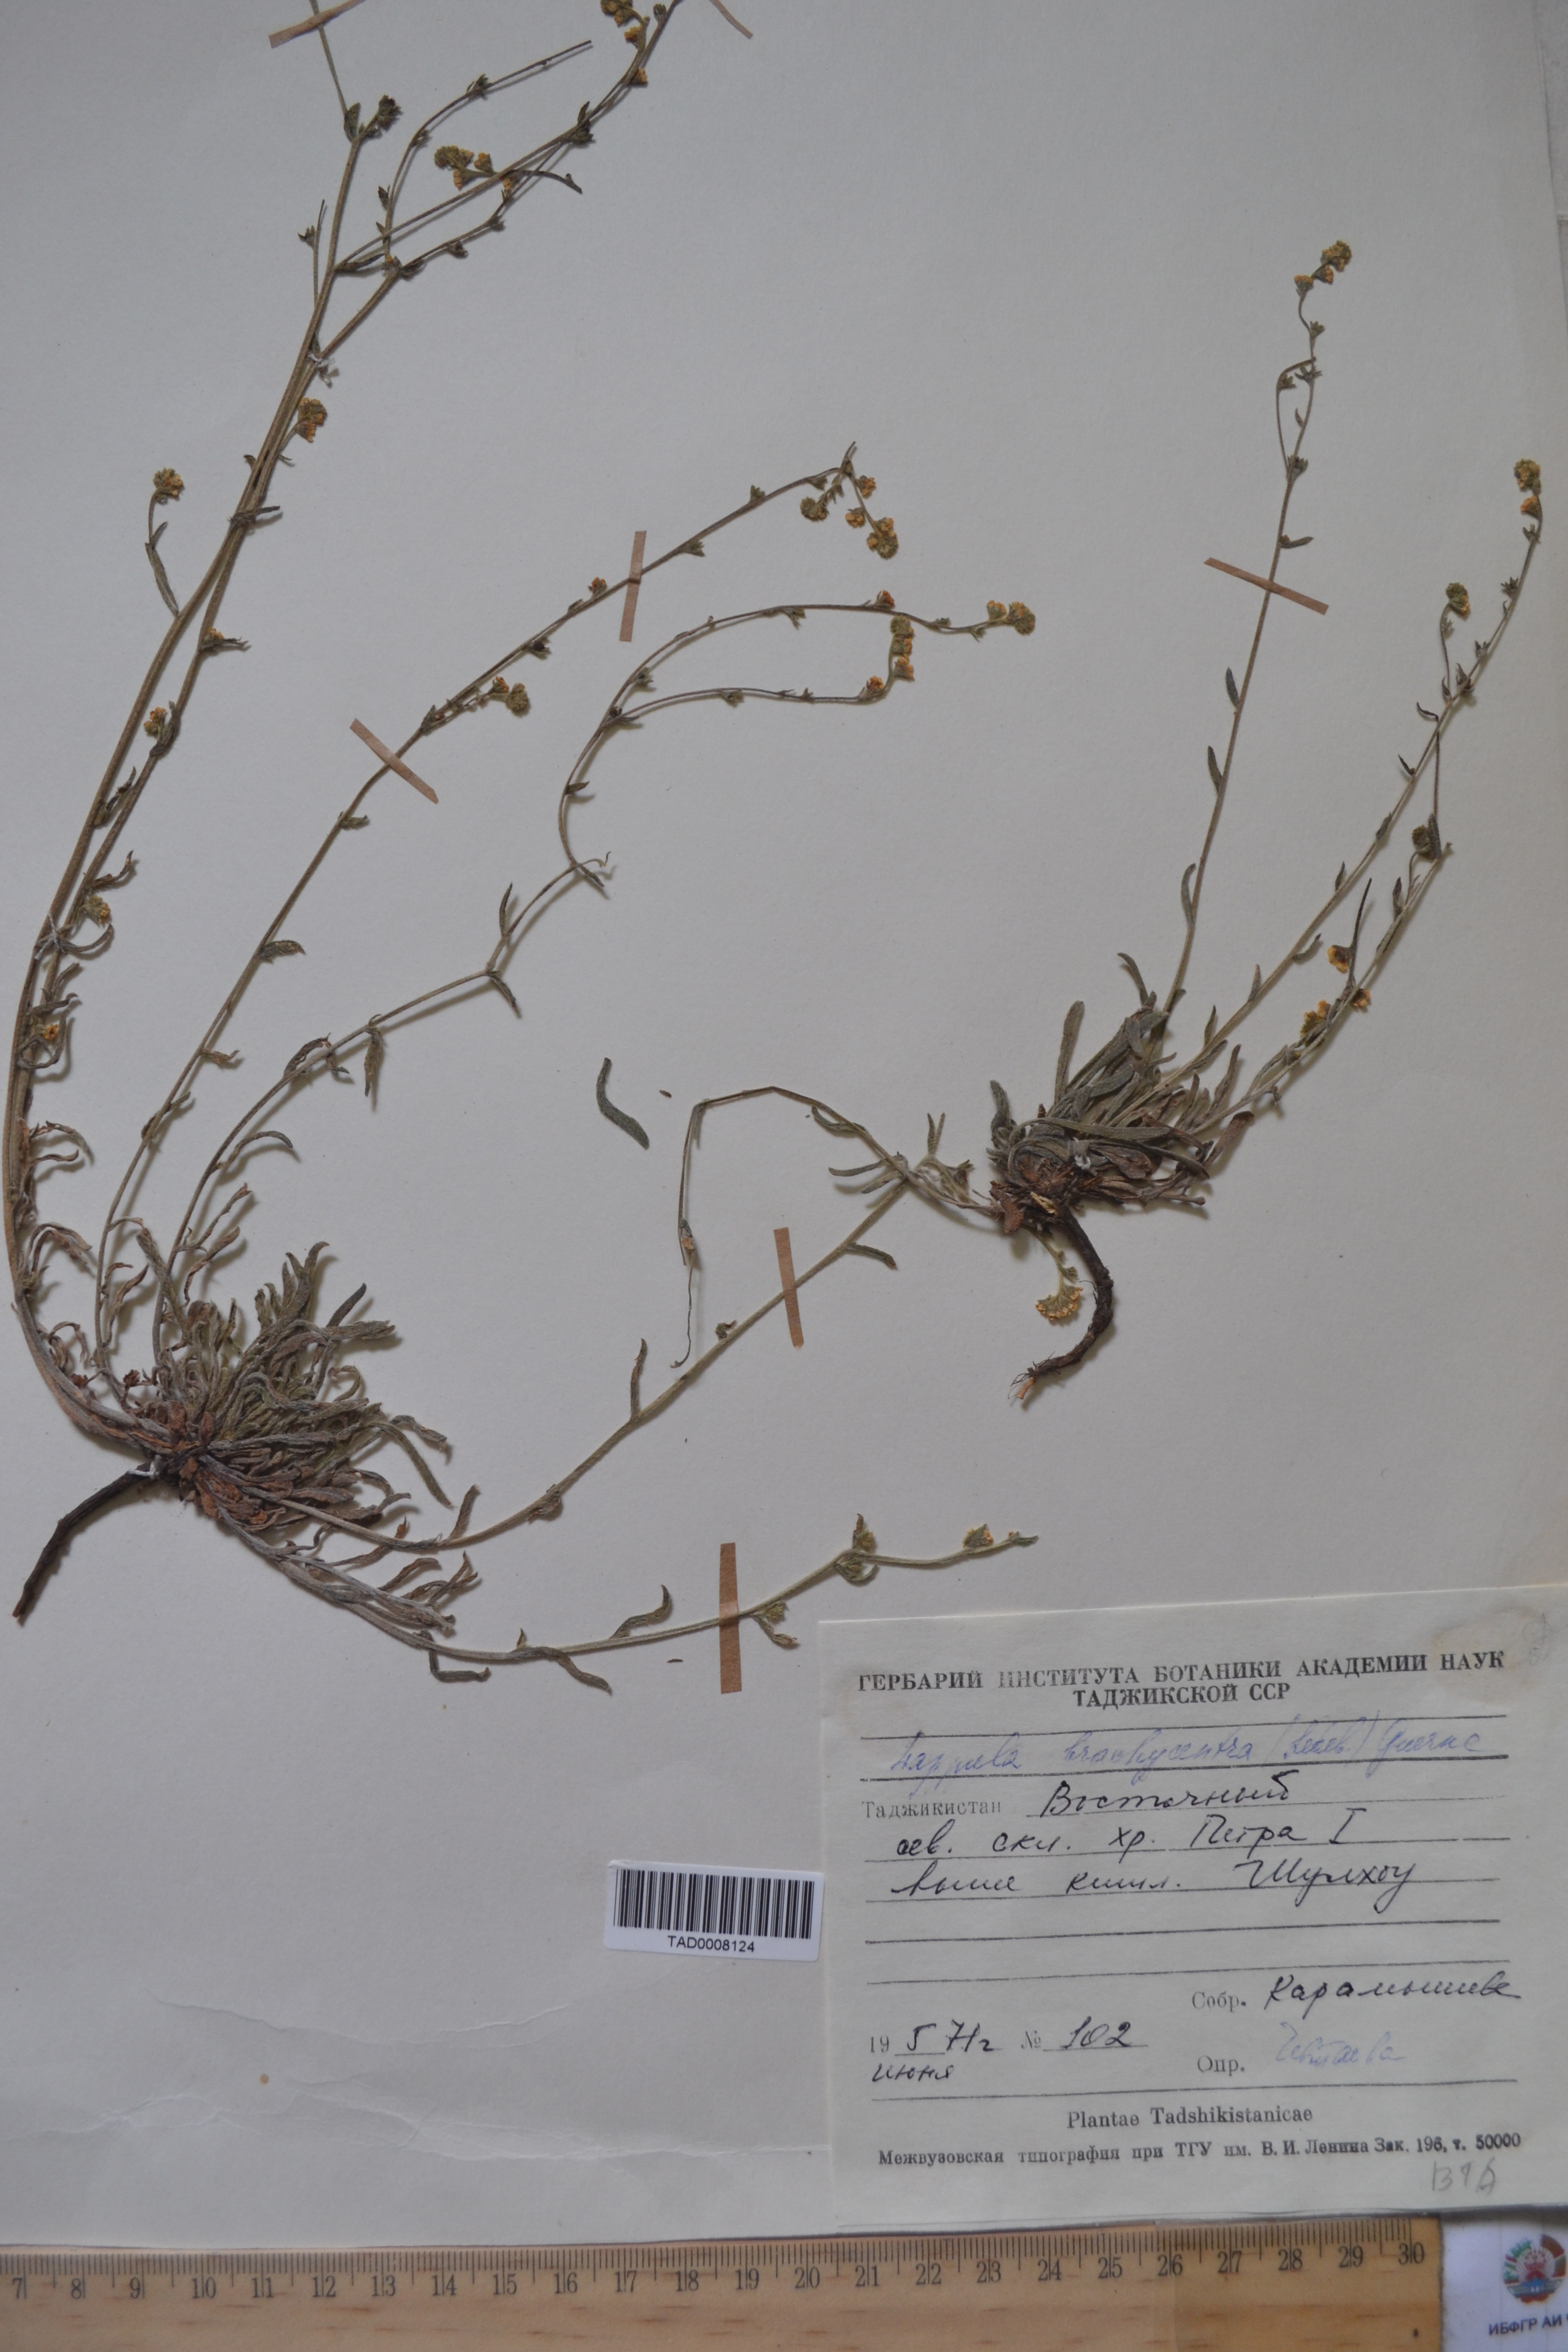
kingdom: Plantae
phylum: Tracheophyta
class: Magnoliopsida
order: Boraginales
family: Boraginaceae
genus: Lappula
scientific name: Lappula brachycentra
